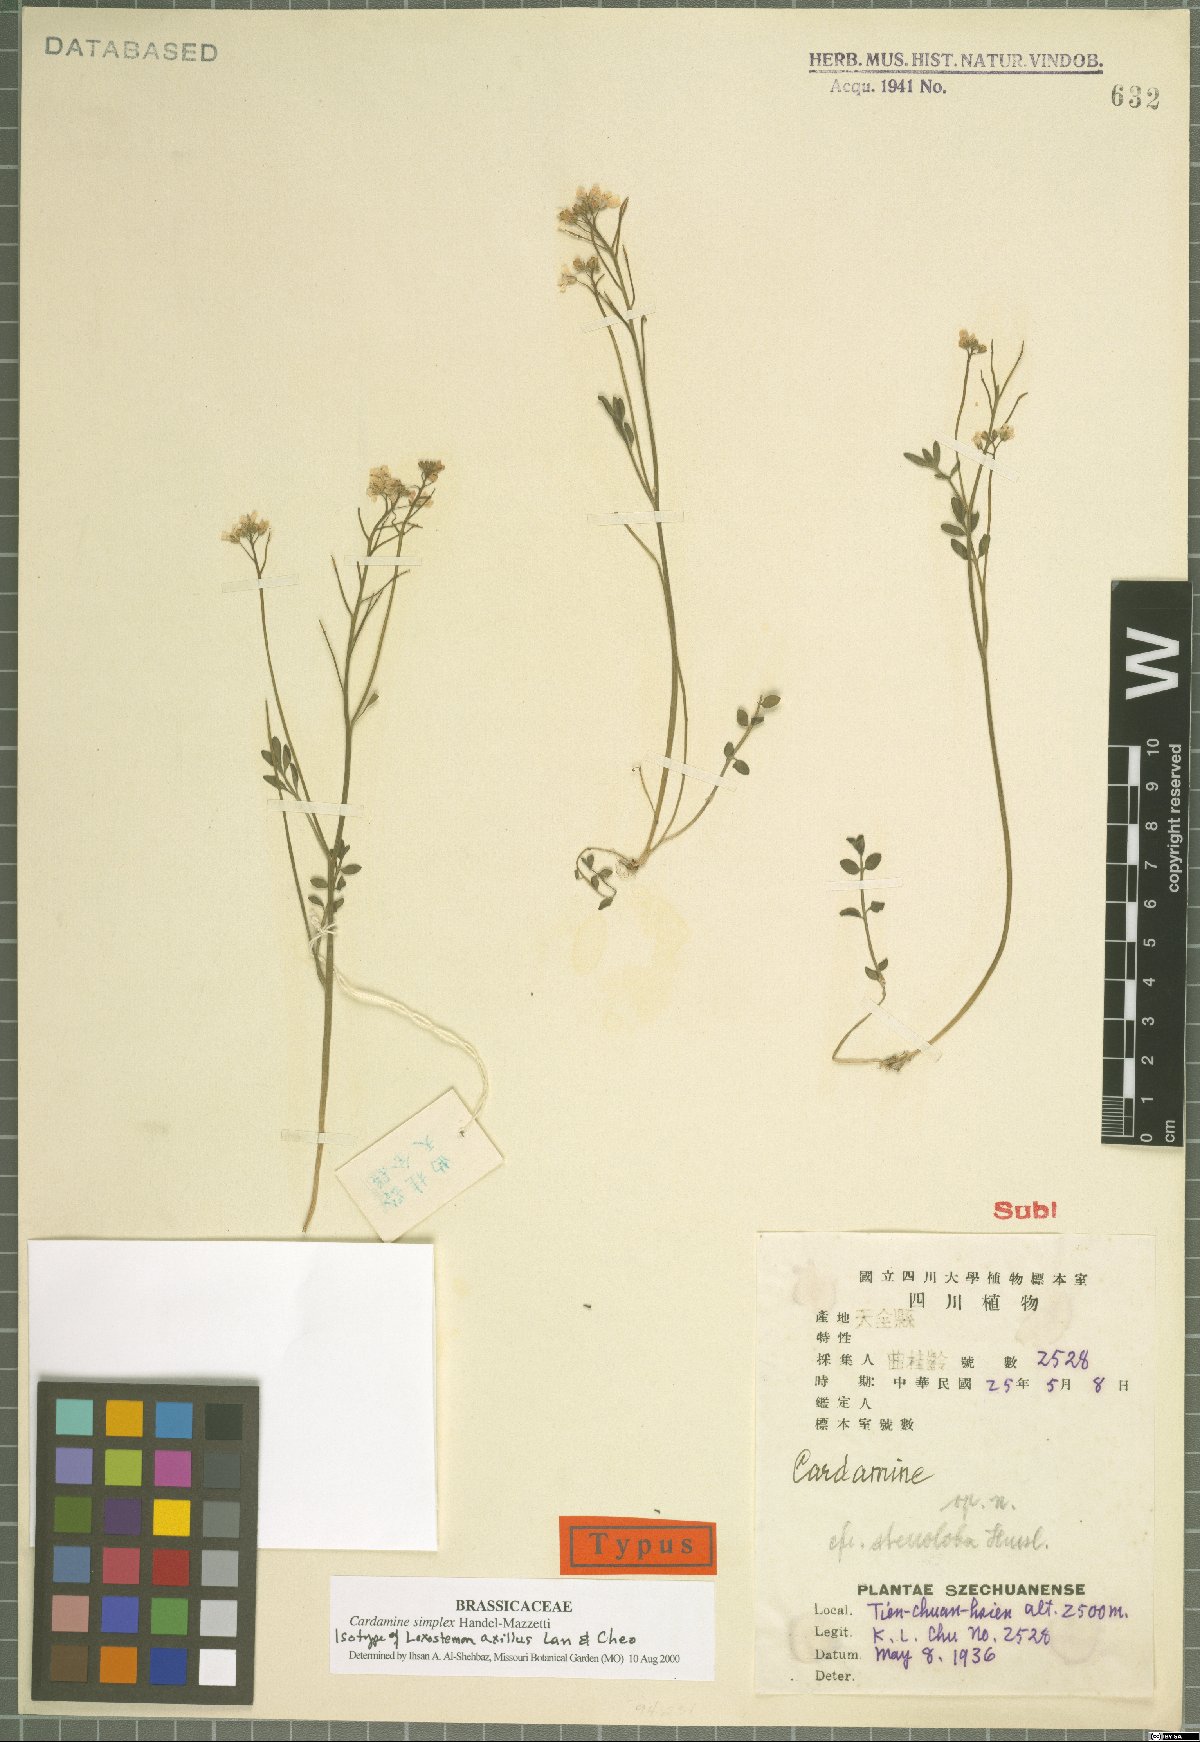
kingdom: Plantae
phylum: Tracheophyta
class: Magnoliopsida
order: Brassicales
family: Brassicaceae
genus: Cardamine
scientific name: Cardamine simplex
